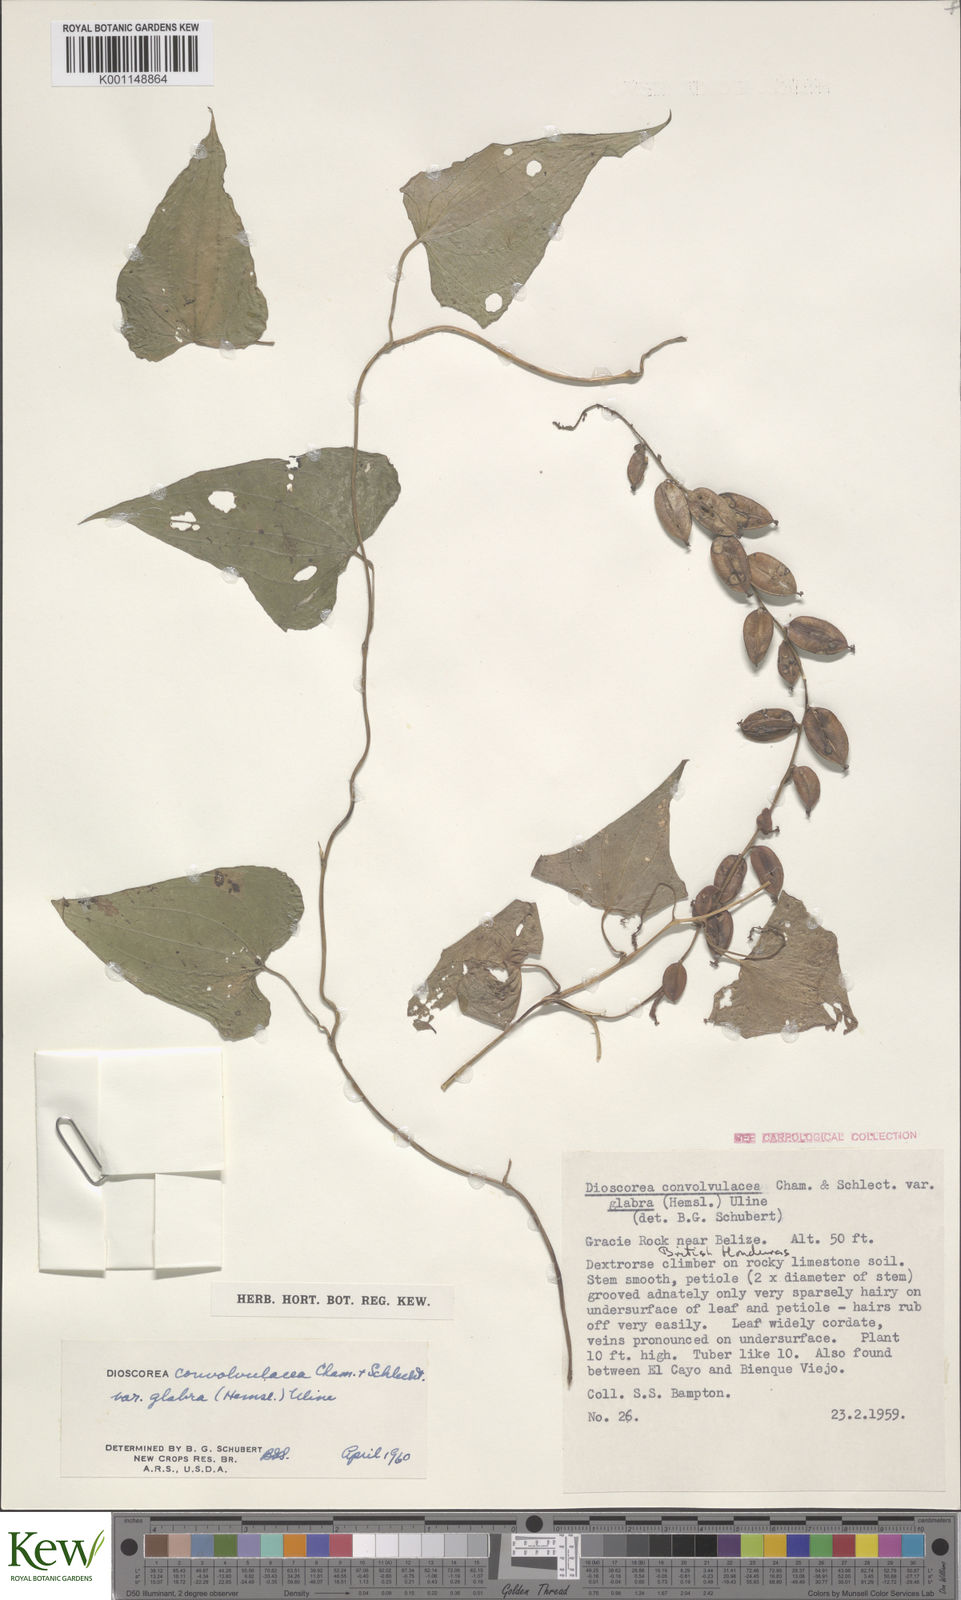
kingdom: Plantae
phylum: Tracheophyta
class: Liliopsida
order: Dioscoreales
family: Dioscoreaceae
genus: Dioscorea
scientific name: Dioscorea convolvulacea
